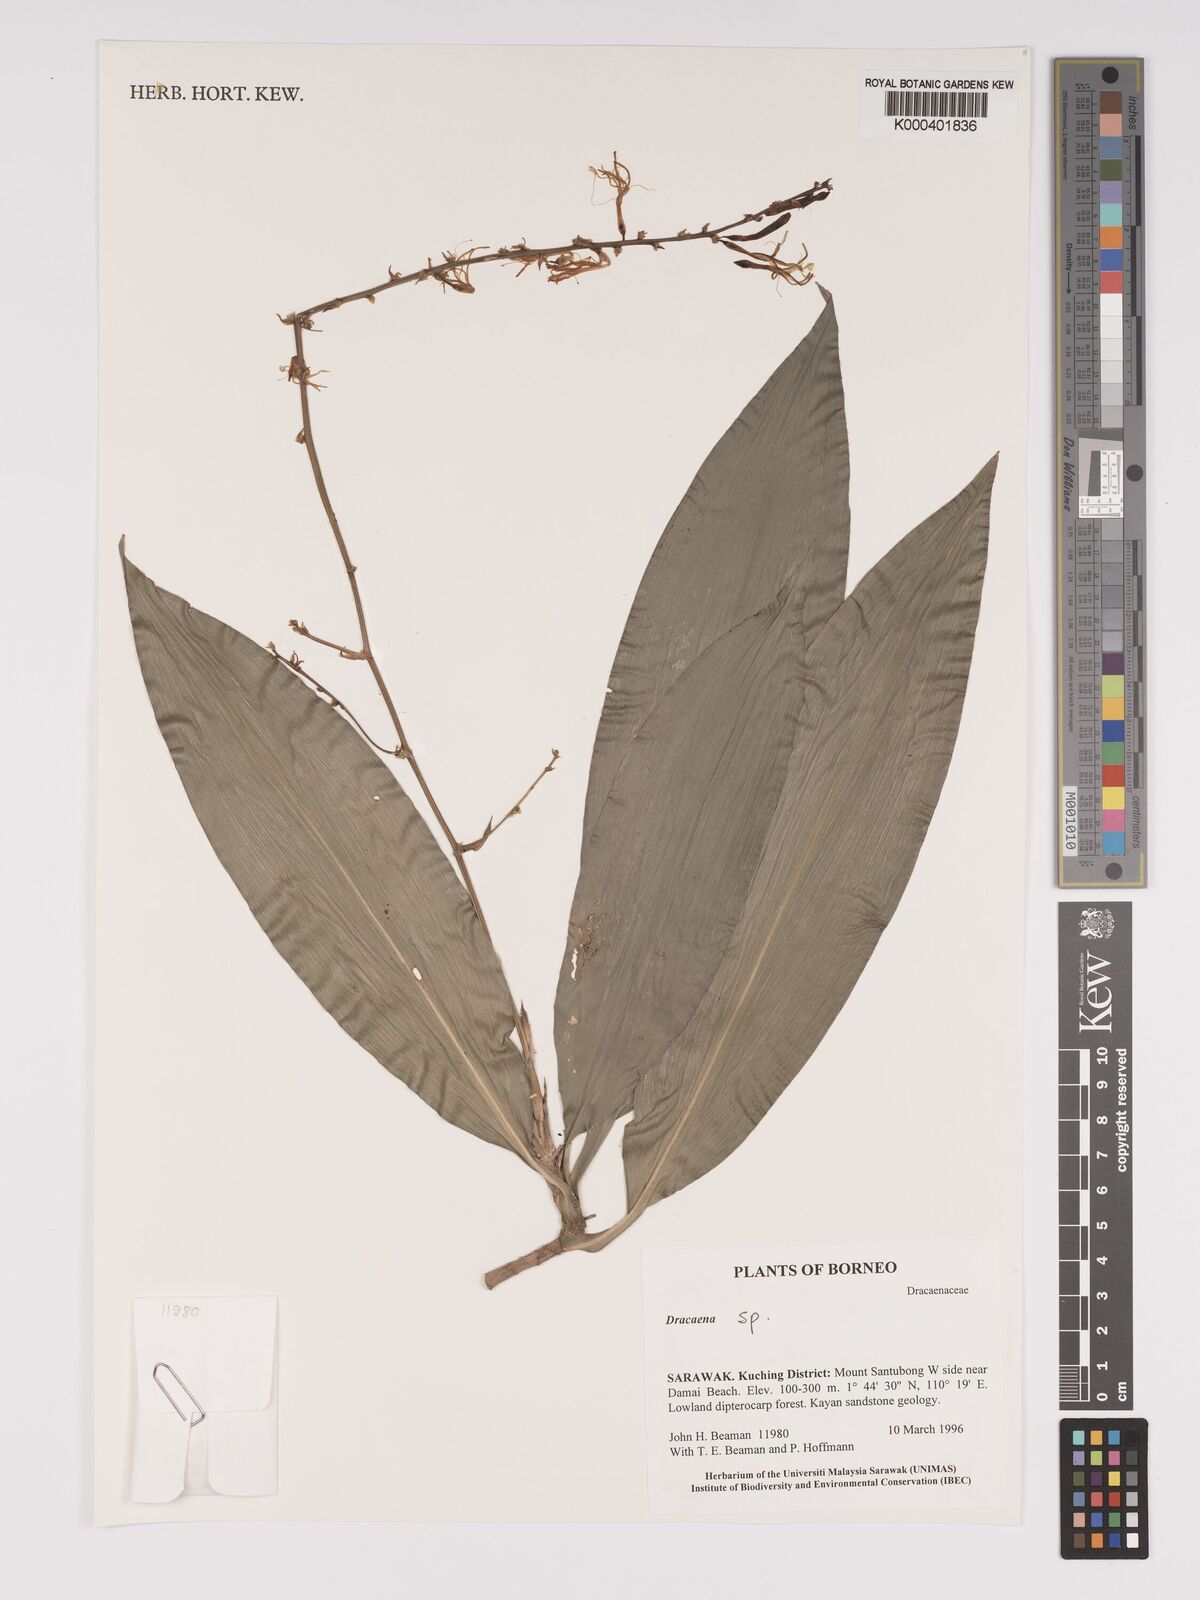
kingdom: Plantae
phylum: Tracheophyta
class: Liliopsida
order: Asparagales
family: Asparagaceae
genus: Dracaena
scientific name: Dracaena
